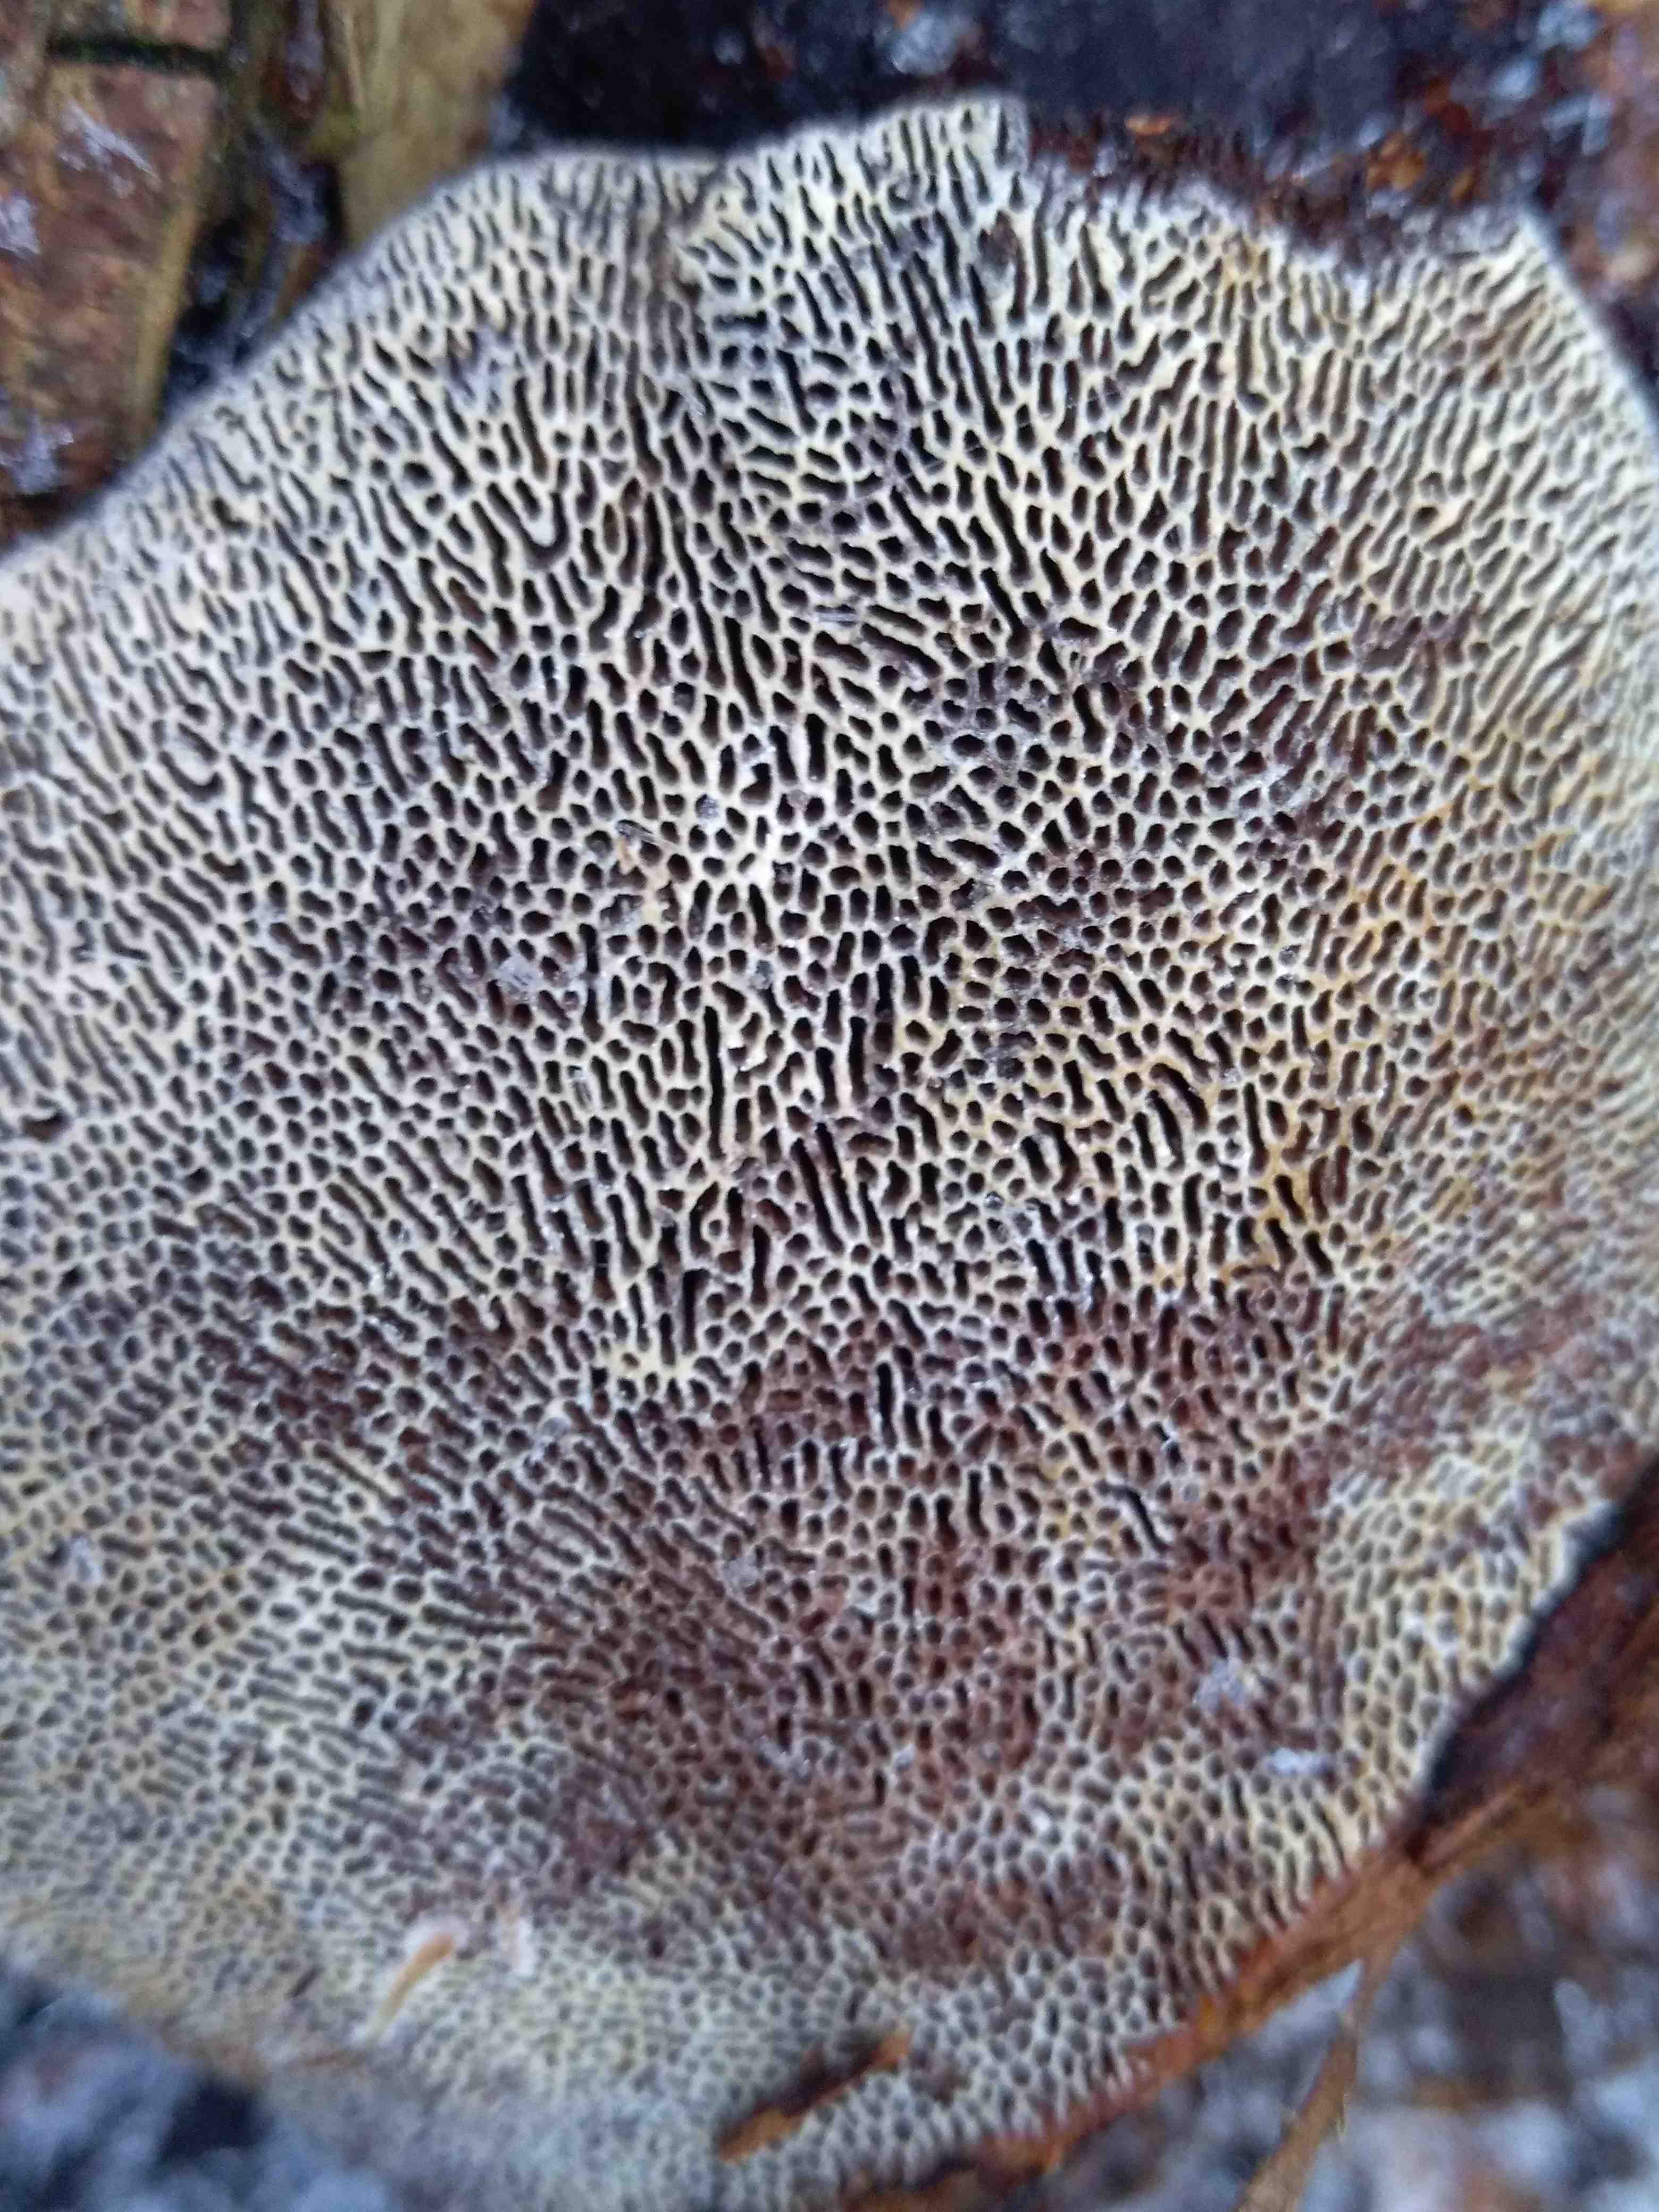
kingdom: Fungi
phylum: Basidiomycota
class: Agaricomycetes
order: Polyporales
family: Polyporaceae
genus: Daedaleopsis
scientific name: Daedaleopsis confragosa
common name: rødmende læderporesvamp
